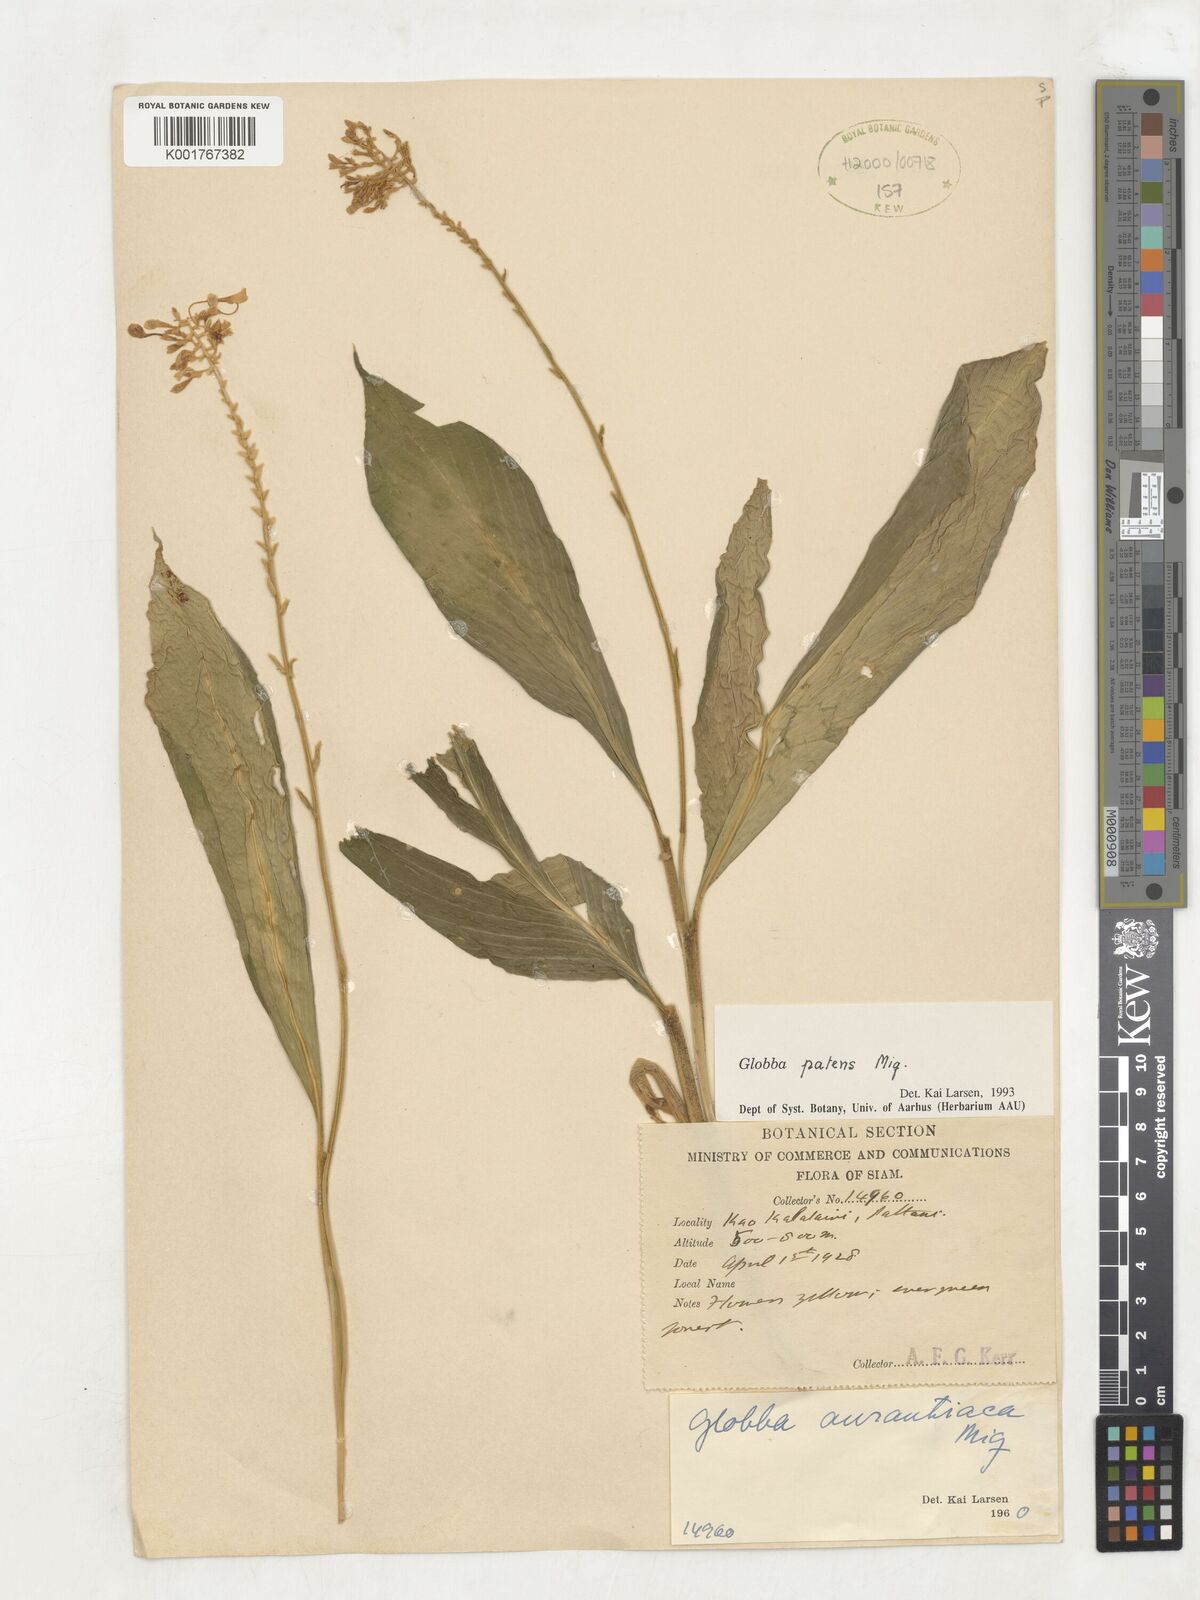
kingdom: Plantae
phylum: Tracheophyta
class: Liliopsida
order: Zingiberales
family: Zingiberaceae
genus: Globba
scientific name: Globba patens
